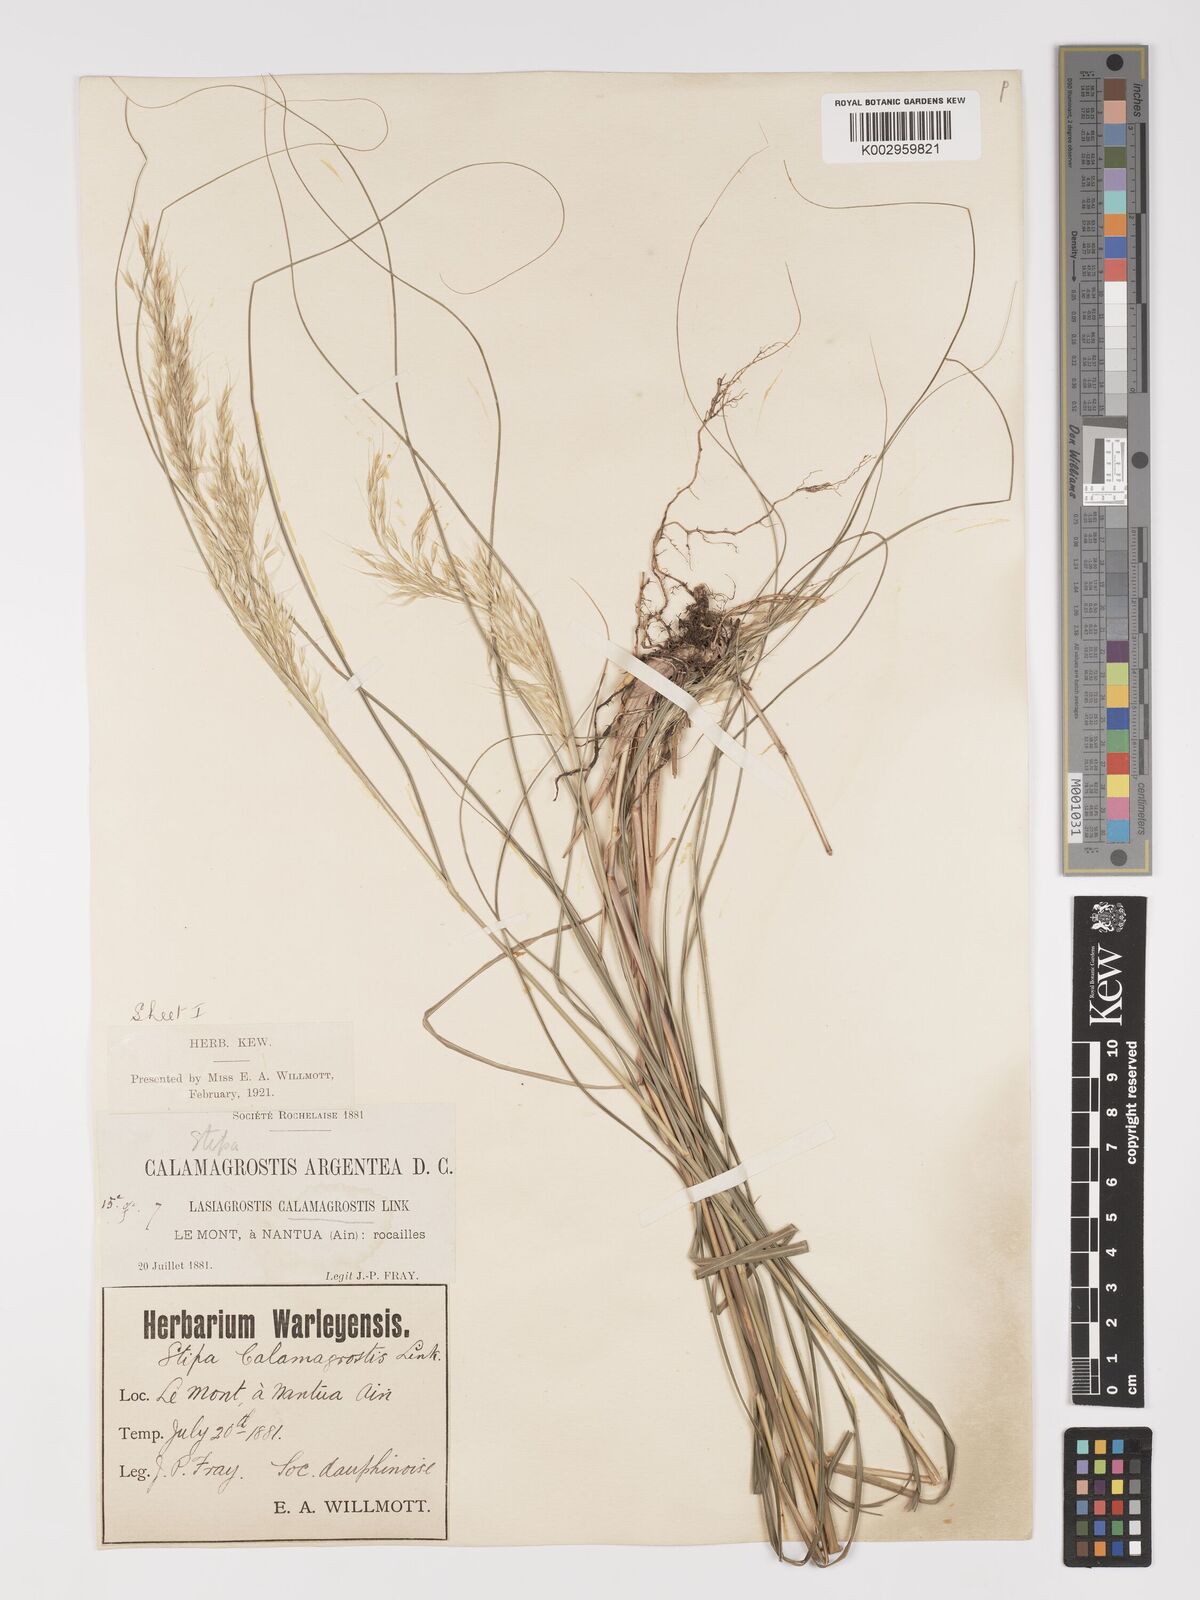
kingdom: Plantae
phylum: Tracheophyta
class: Liliopsida
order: Poales
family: Poaceae
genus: Achnatherum
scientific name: Achnatherum calamagrostis
